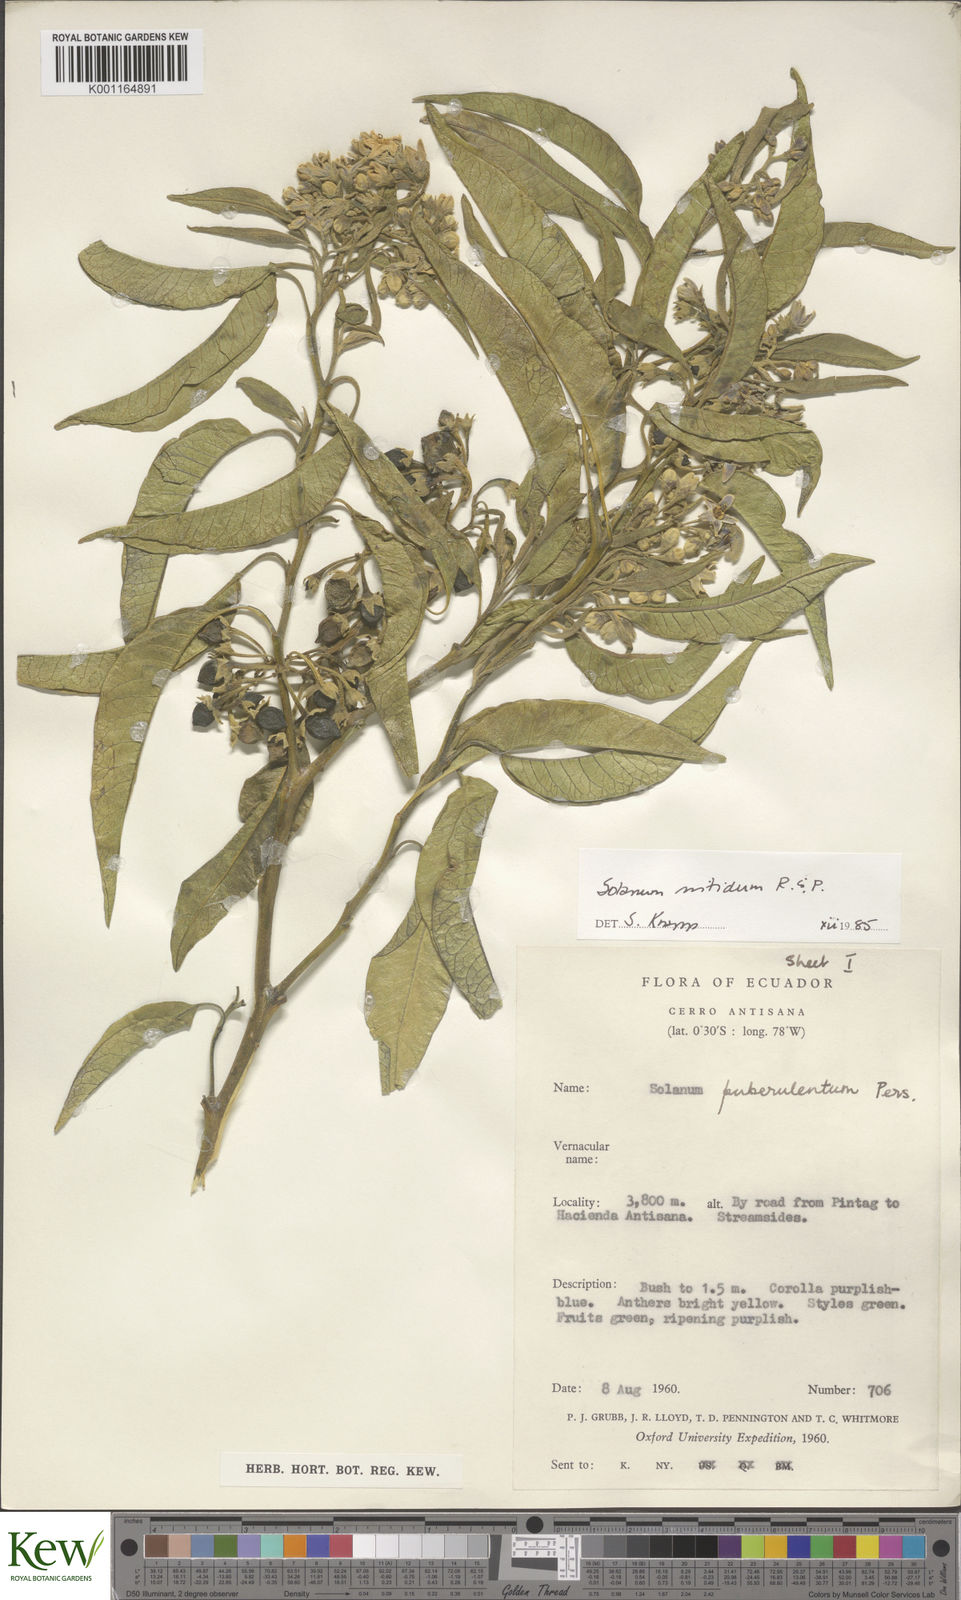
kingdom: Plantae
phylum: Tracheophyta
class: Magnoliopsida
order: Solanales
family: Solanaceae
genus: Solanum
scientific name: Solanum nitidum
